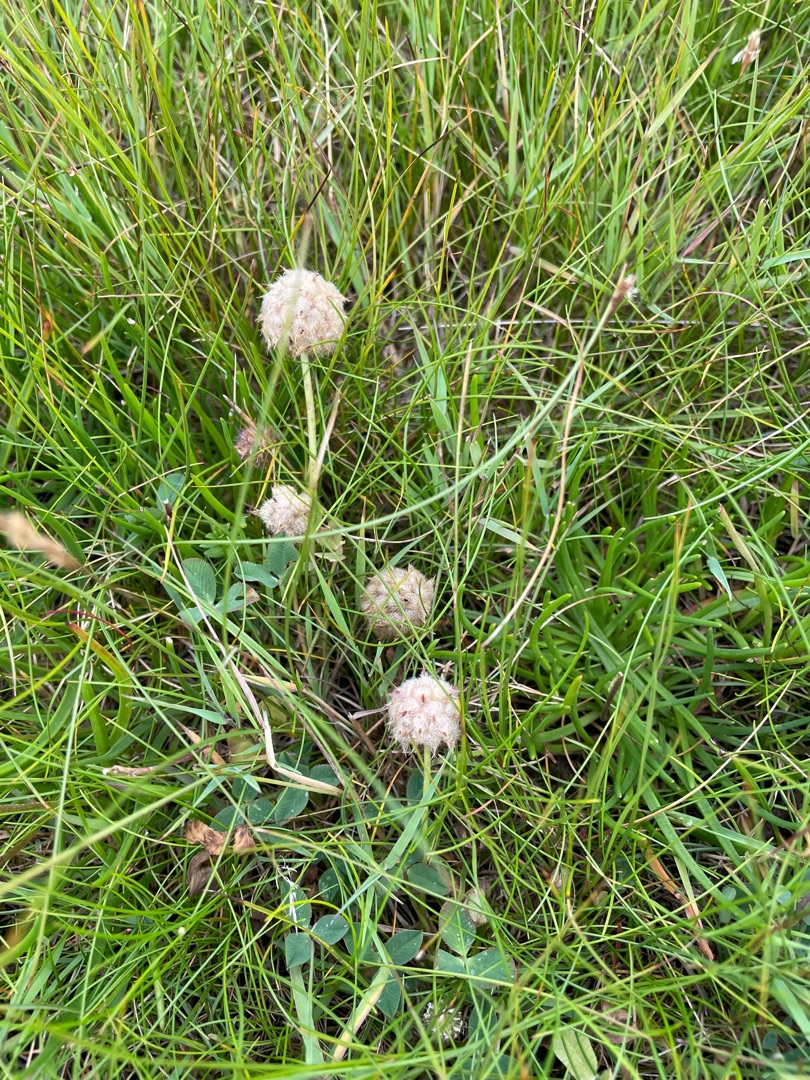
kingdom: Plantae
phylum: Tracheophyta
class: Magnoliopsida
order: Fabales
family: Fabaceae
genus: Trifolium
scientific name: Trifolium fragiferum
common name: Jordbær-kløver
